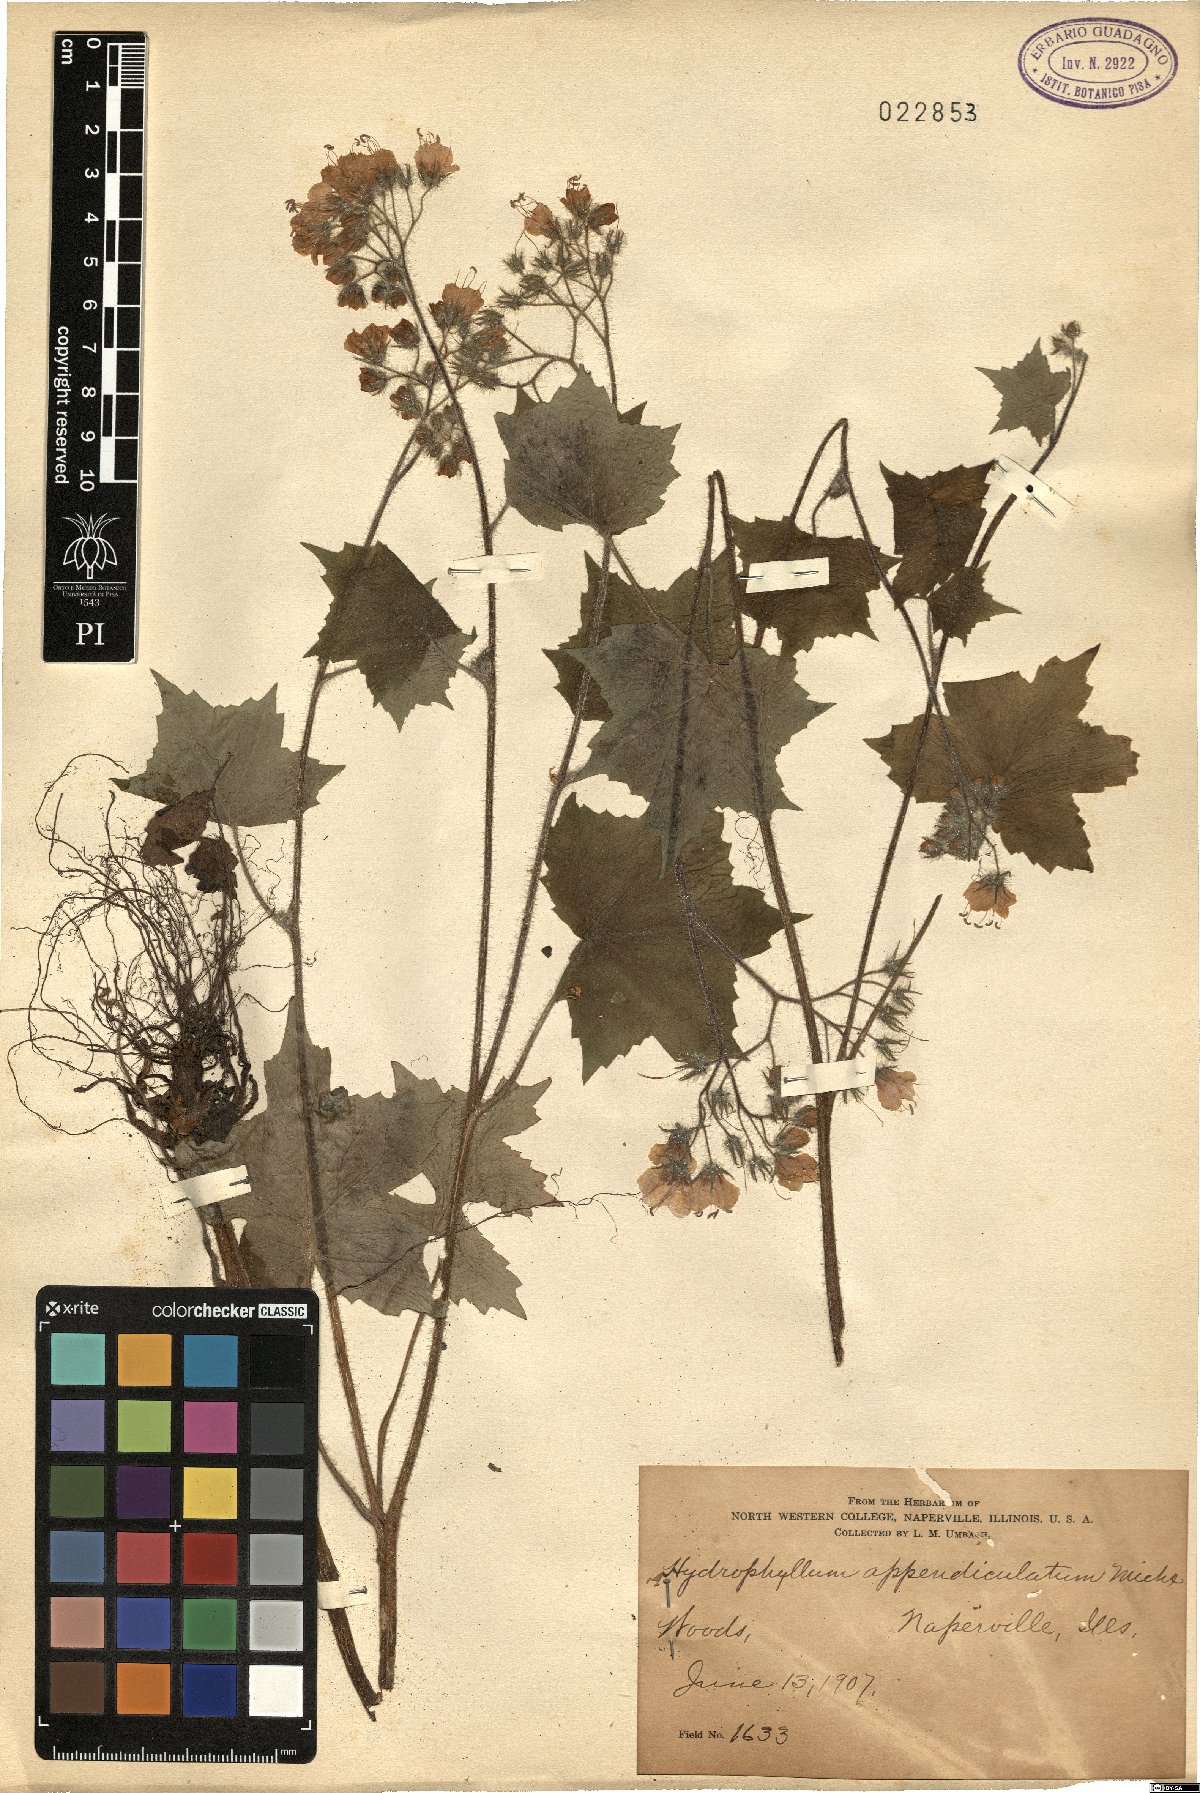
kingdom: Plantae
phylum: Tracheophyta
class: Magnoliopsida
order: Boraginales
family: Hydrophyllaceae
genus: Hydrophyllum
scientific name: Hydrophyllum appendiculatum
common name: Appendaged waterleaf
